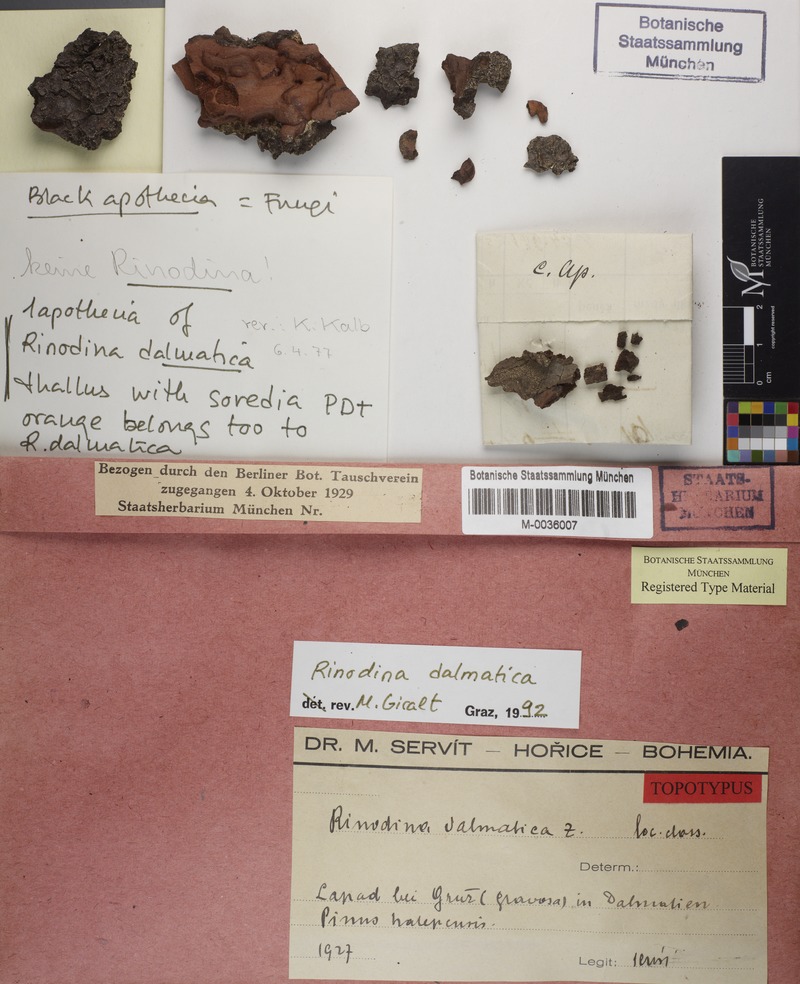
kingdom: Fungi
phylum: Ascomycota
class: Lecanoromycetes
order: Caliciales
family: Physciaceae
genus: Rinodina
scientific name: Rinodina dalmatica
